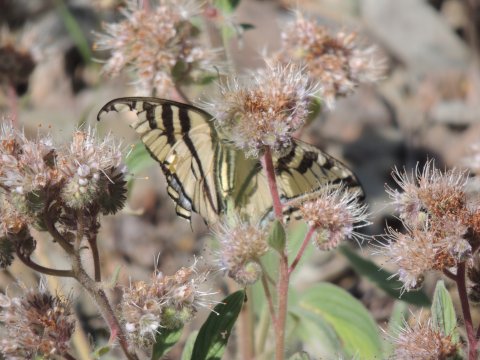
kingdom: Animalia
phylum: Arthropoda
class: Insecta
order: Lepidoptera
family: Papilionidae
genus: Pterourus
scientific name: Pterourus rutulus
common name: Western Tiger Swallowtail
